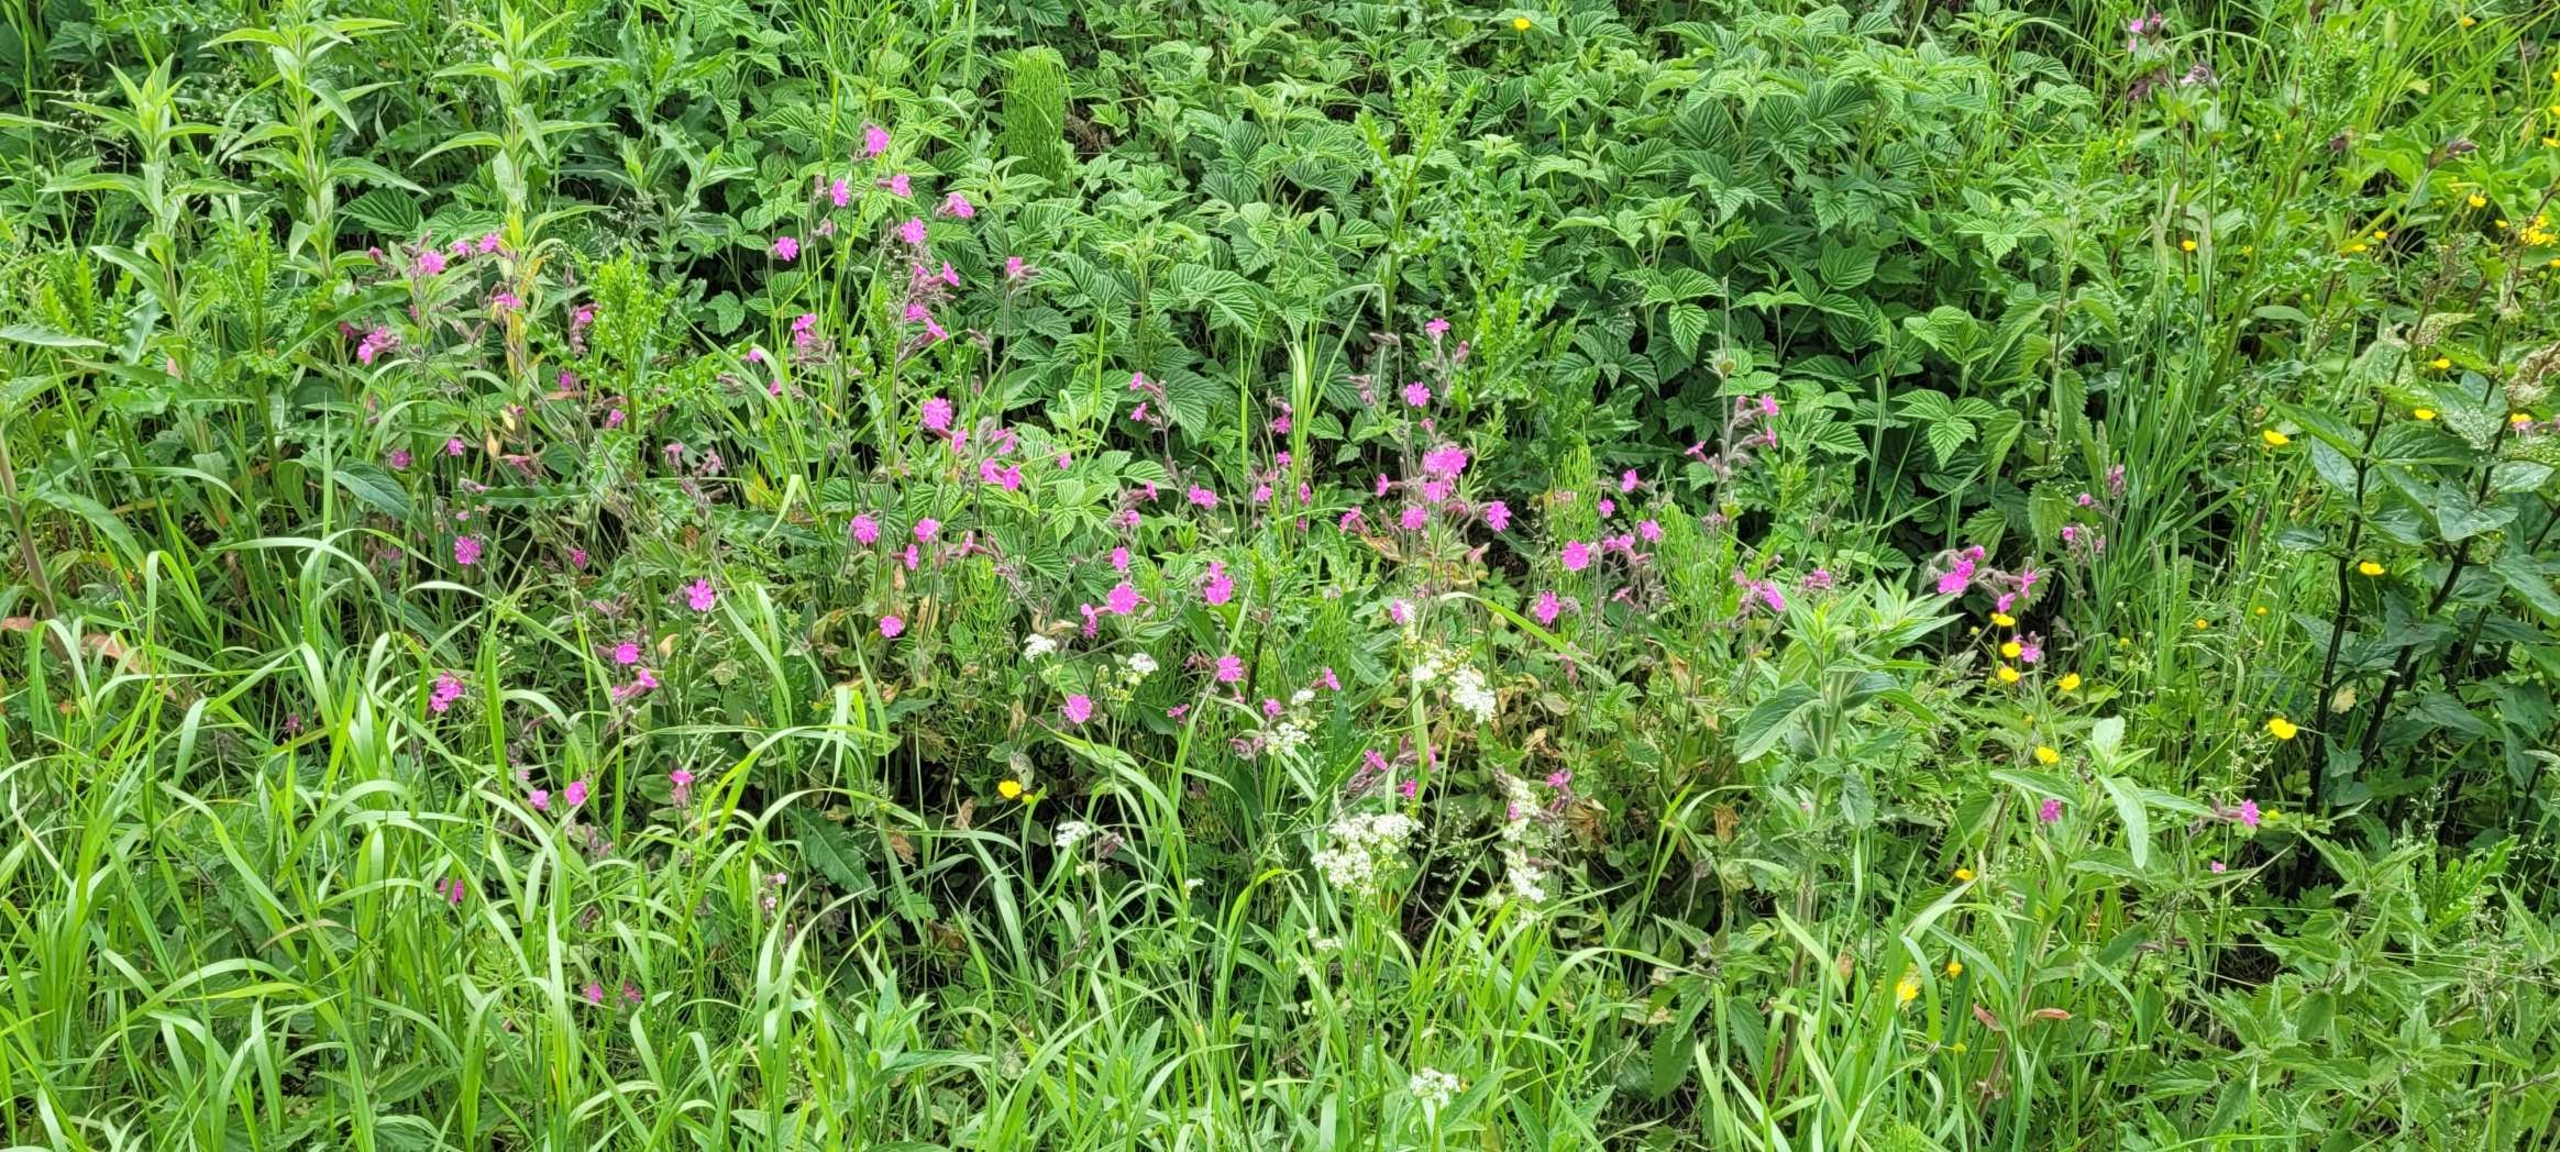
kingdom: Plantae
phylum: Tracheophyta
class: Magnoliopsida
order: Caryophyllales
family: Caryophyllaceae
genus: Silene
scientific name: Silene dioica
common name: Dagpragtstjerne
